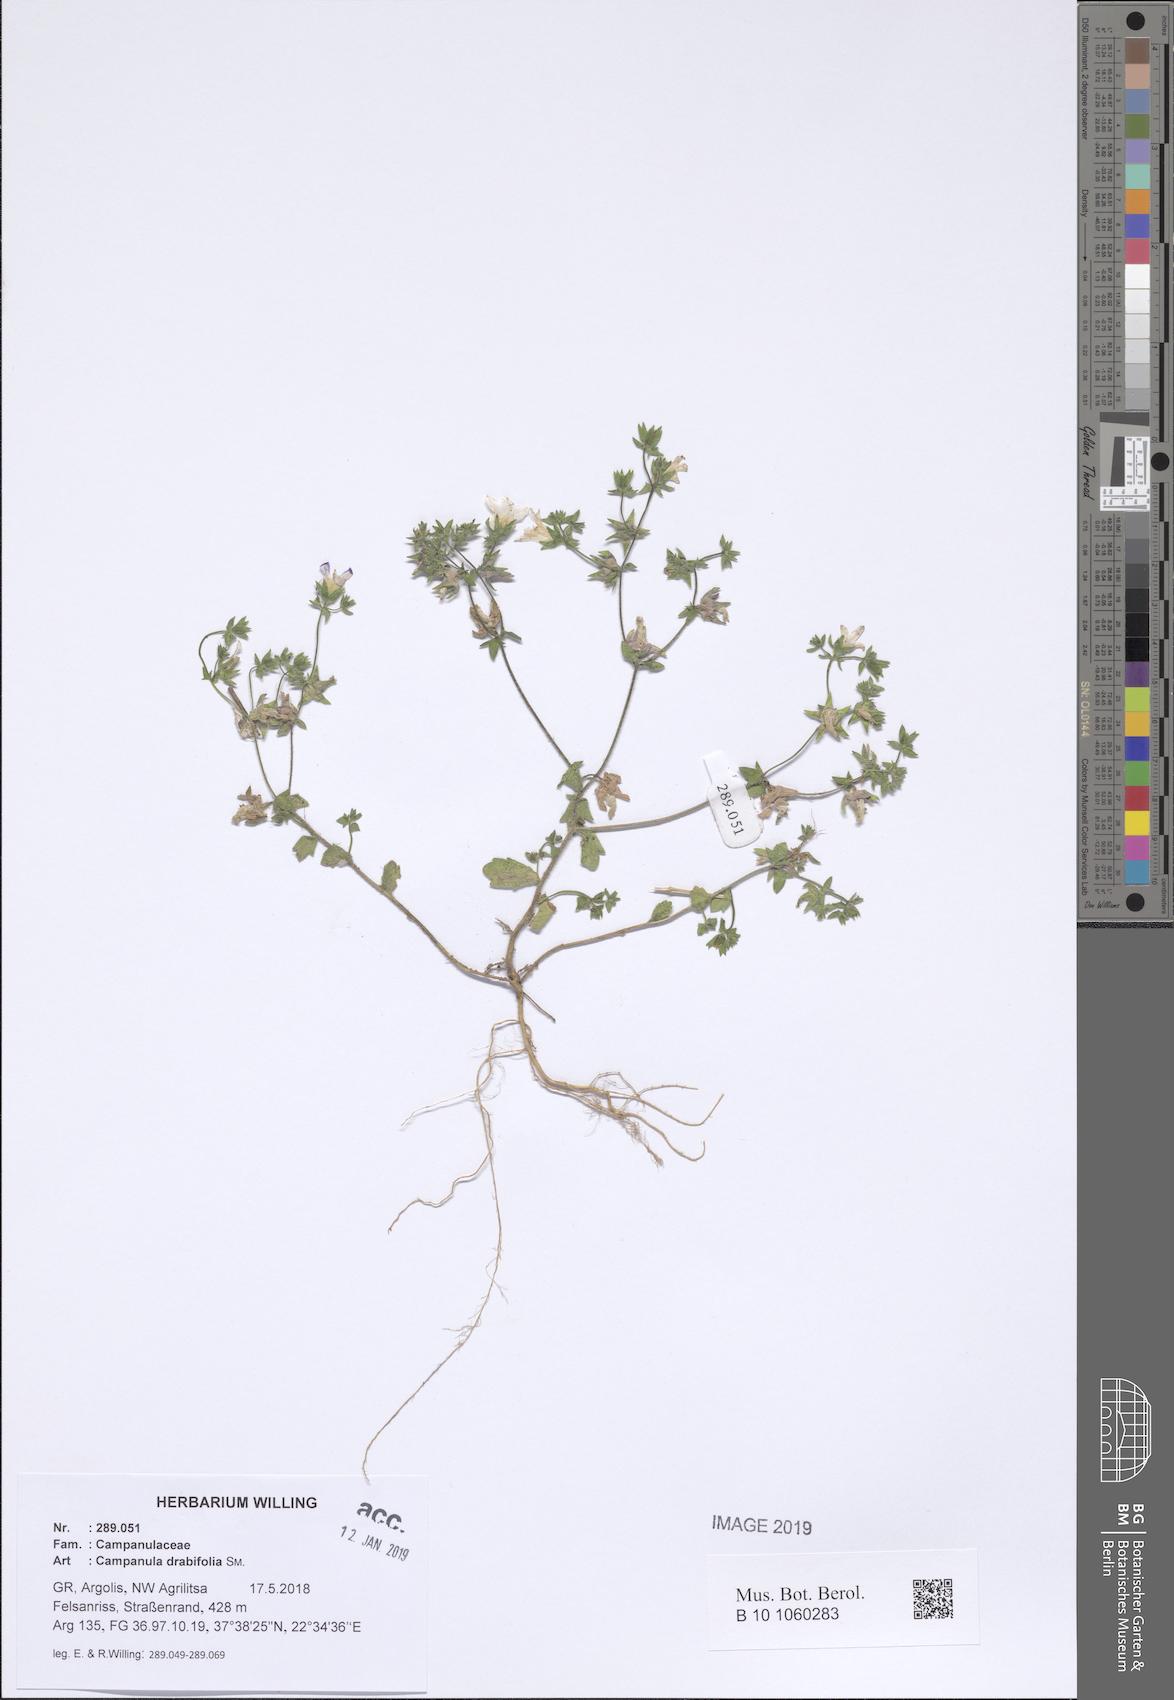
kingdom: Plantae
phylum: Tracheophyta
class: Magnoliopsida
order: Asterales
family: Campanulaceae
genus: Campanula
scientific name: Campanula drabifolia
